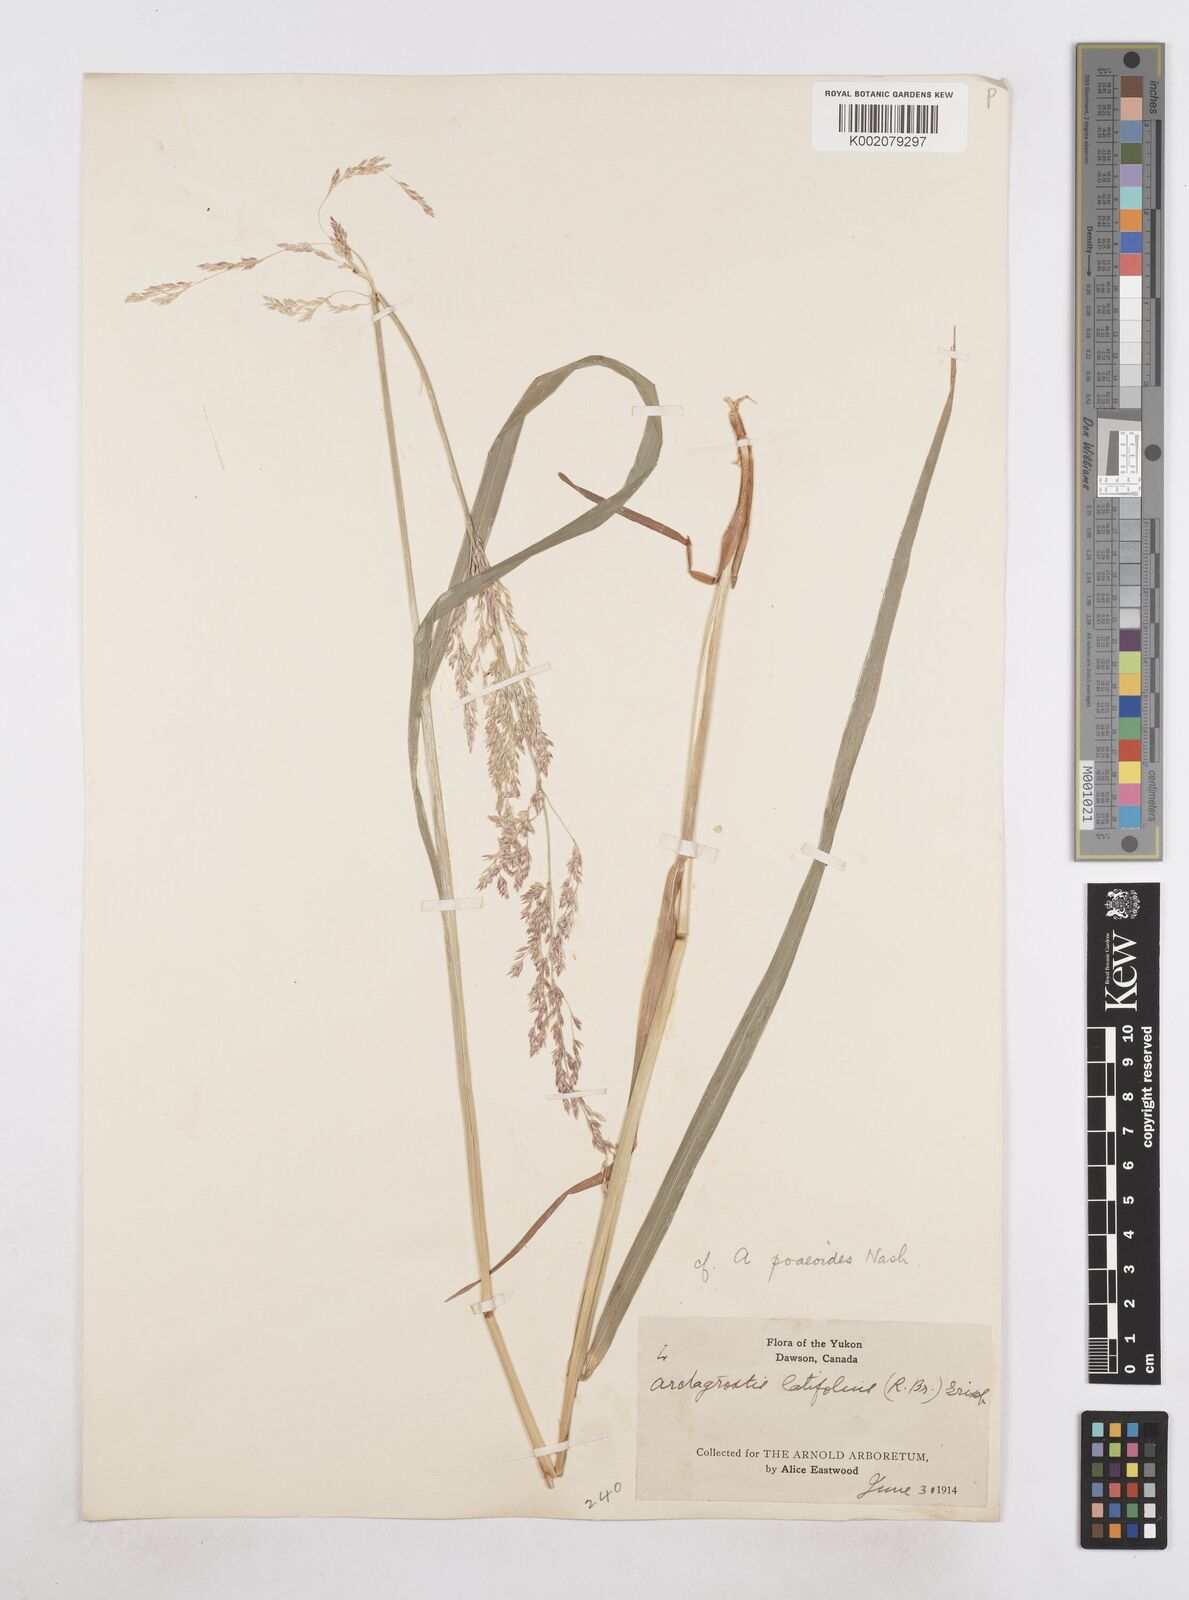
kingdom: Plantae
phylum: Tracheophyta
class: Liliopsida
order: Poales
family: Poaceae
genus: Arctagrostis
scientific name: Arctagrostis latifolia
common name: Arctic grass
